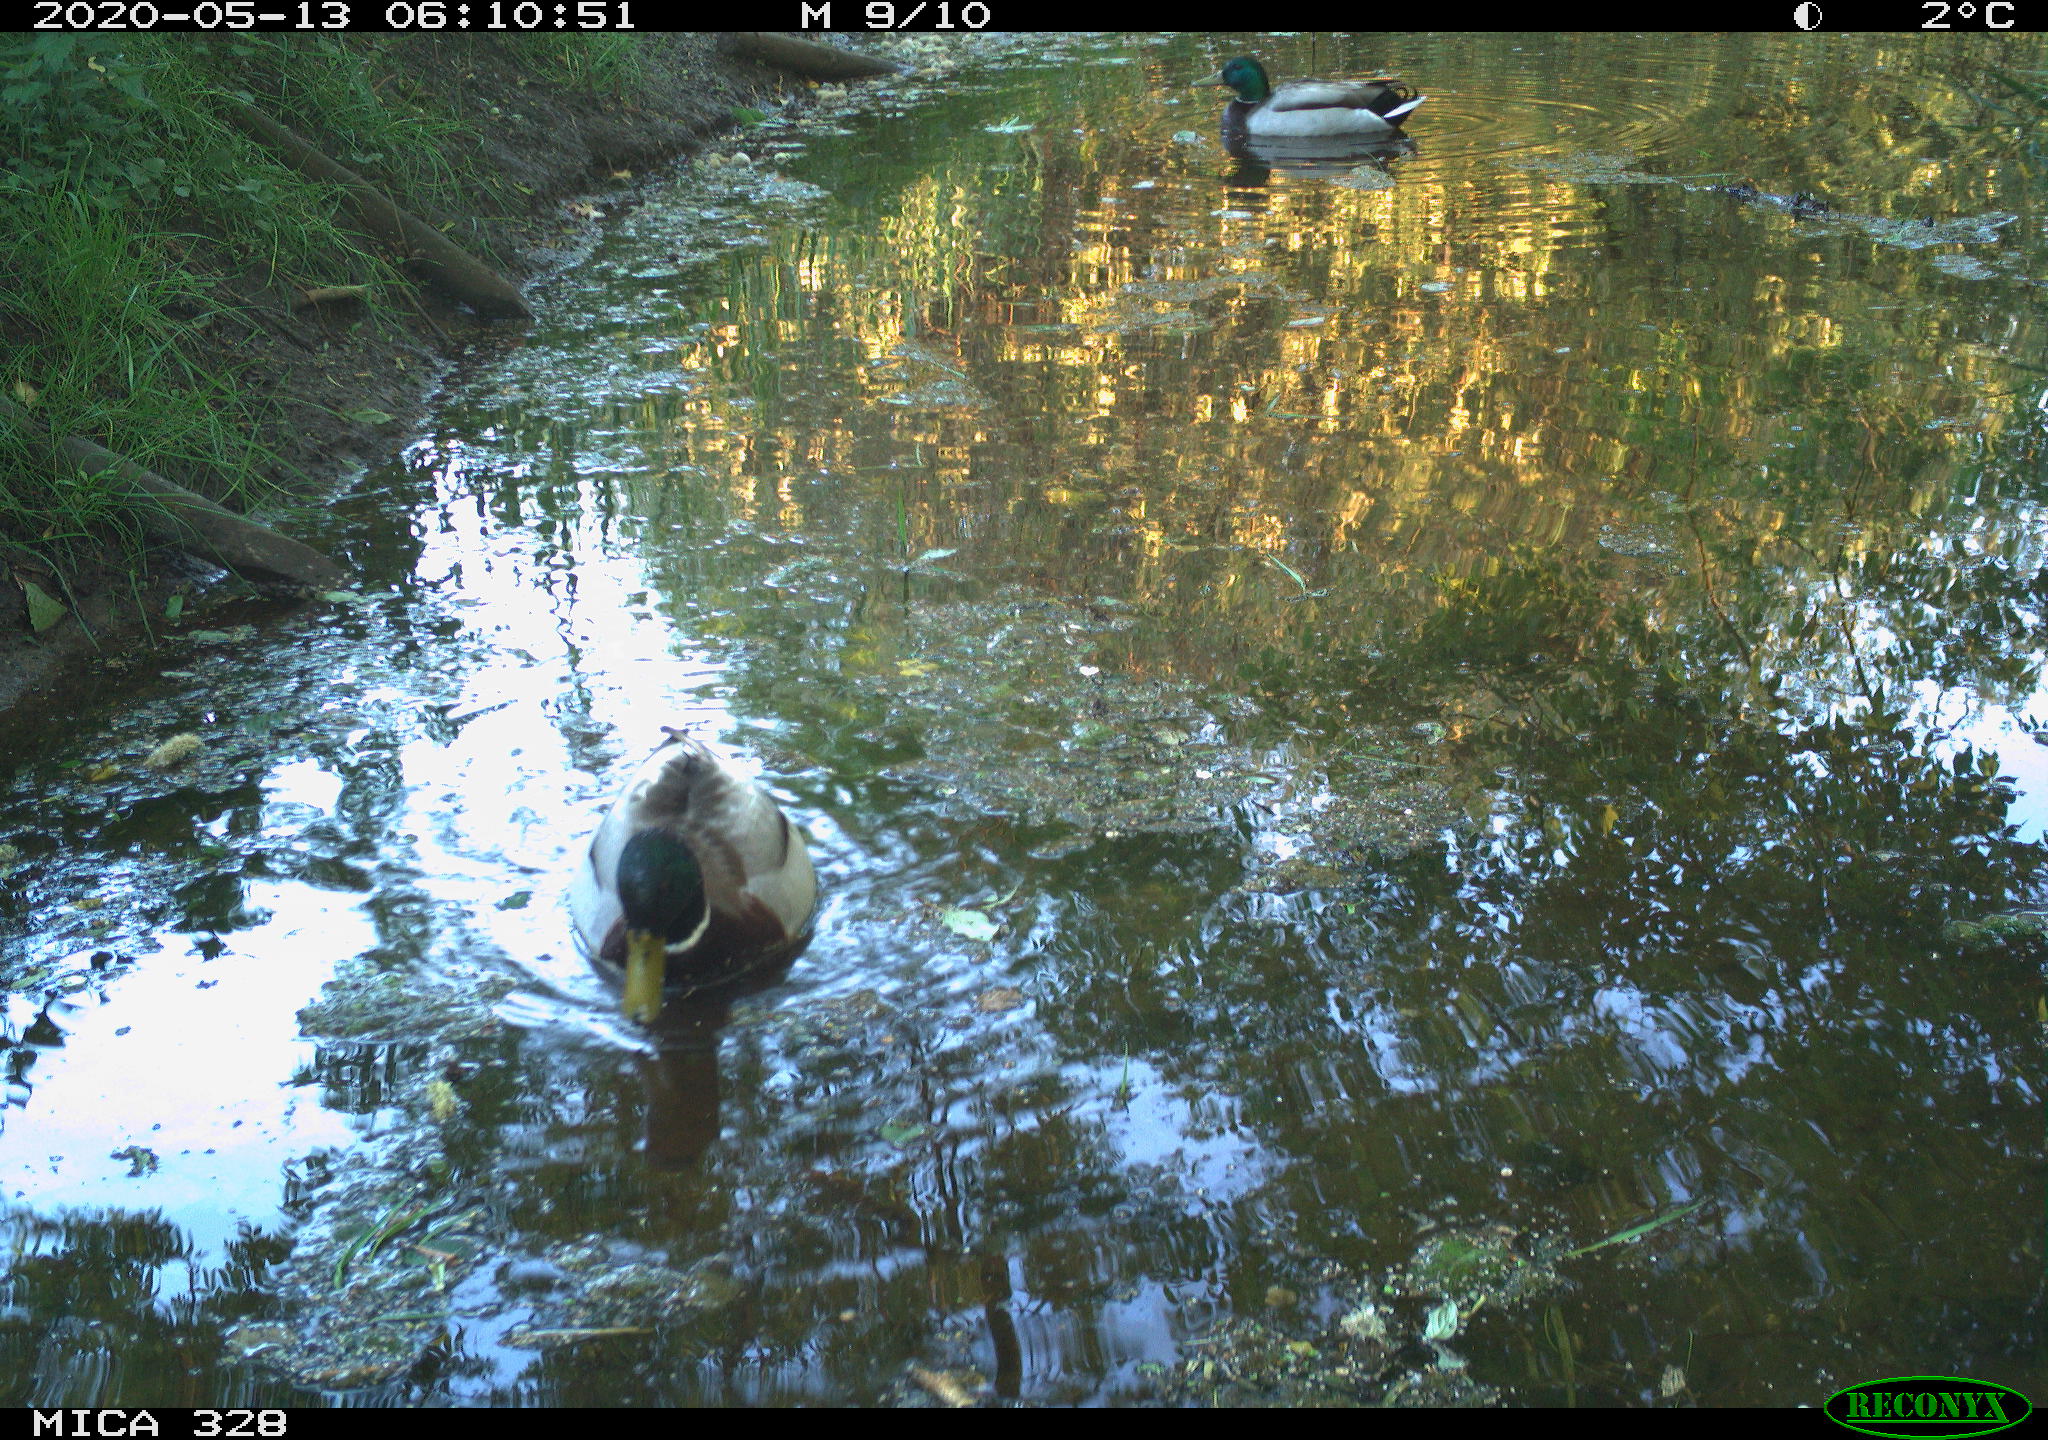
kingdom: Animalia
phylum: Chordata
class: Aves
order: Anseriformes
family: Anatidae
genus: Anas
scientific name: Anas platyrhynchos
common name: Mallard
